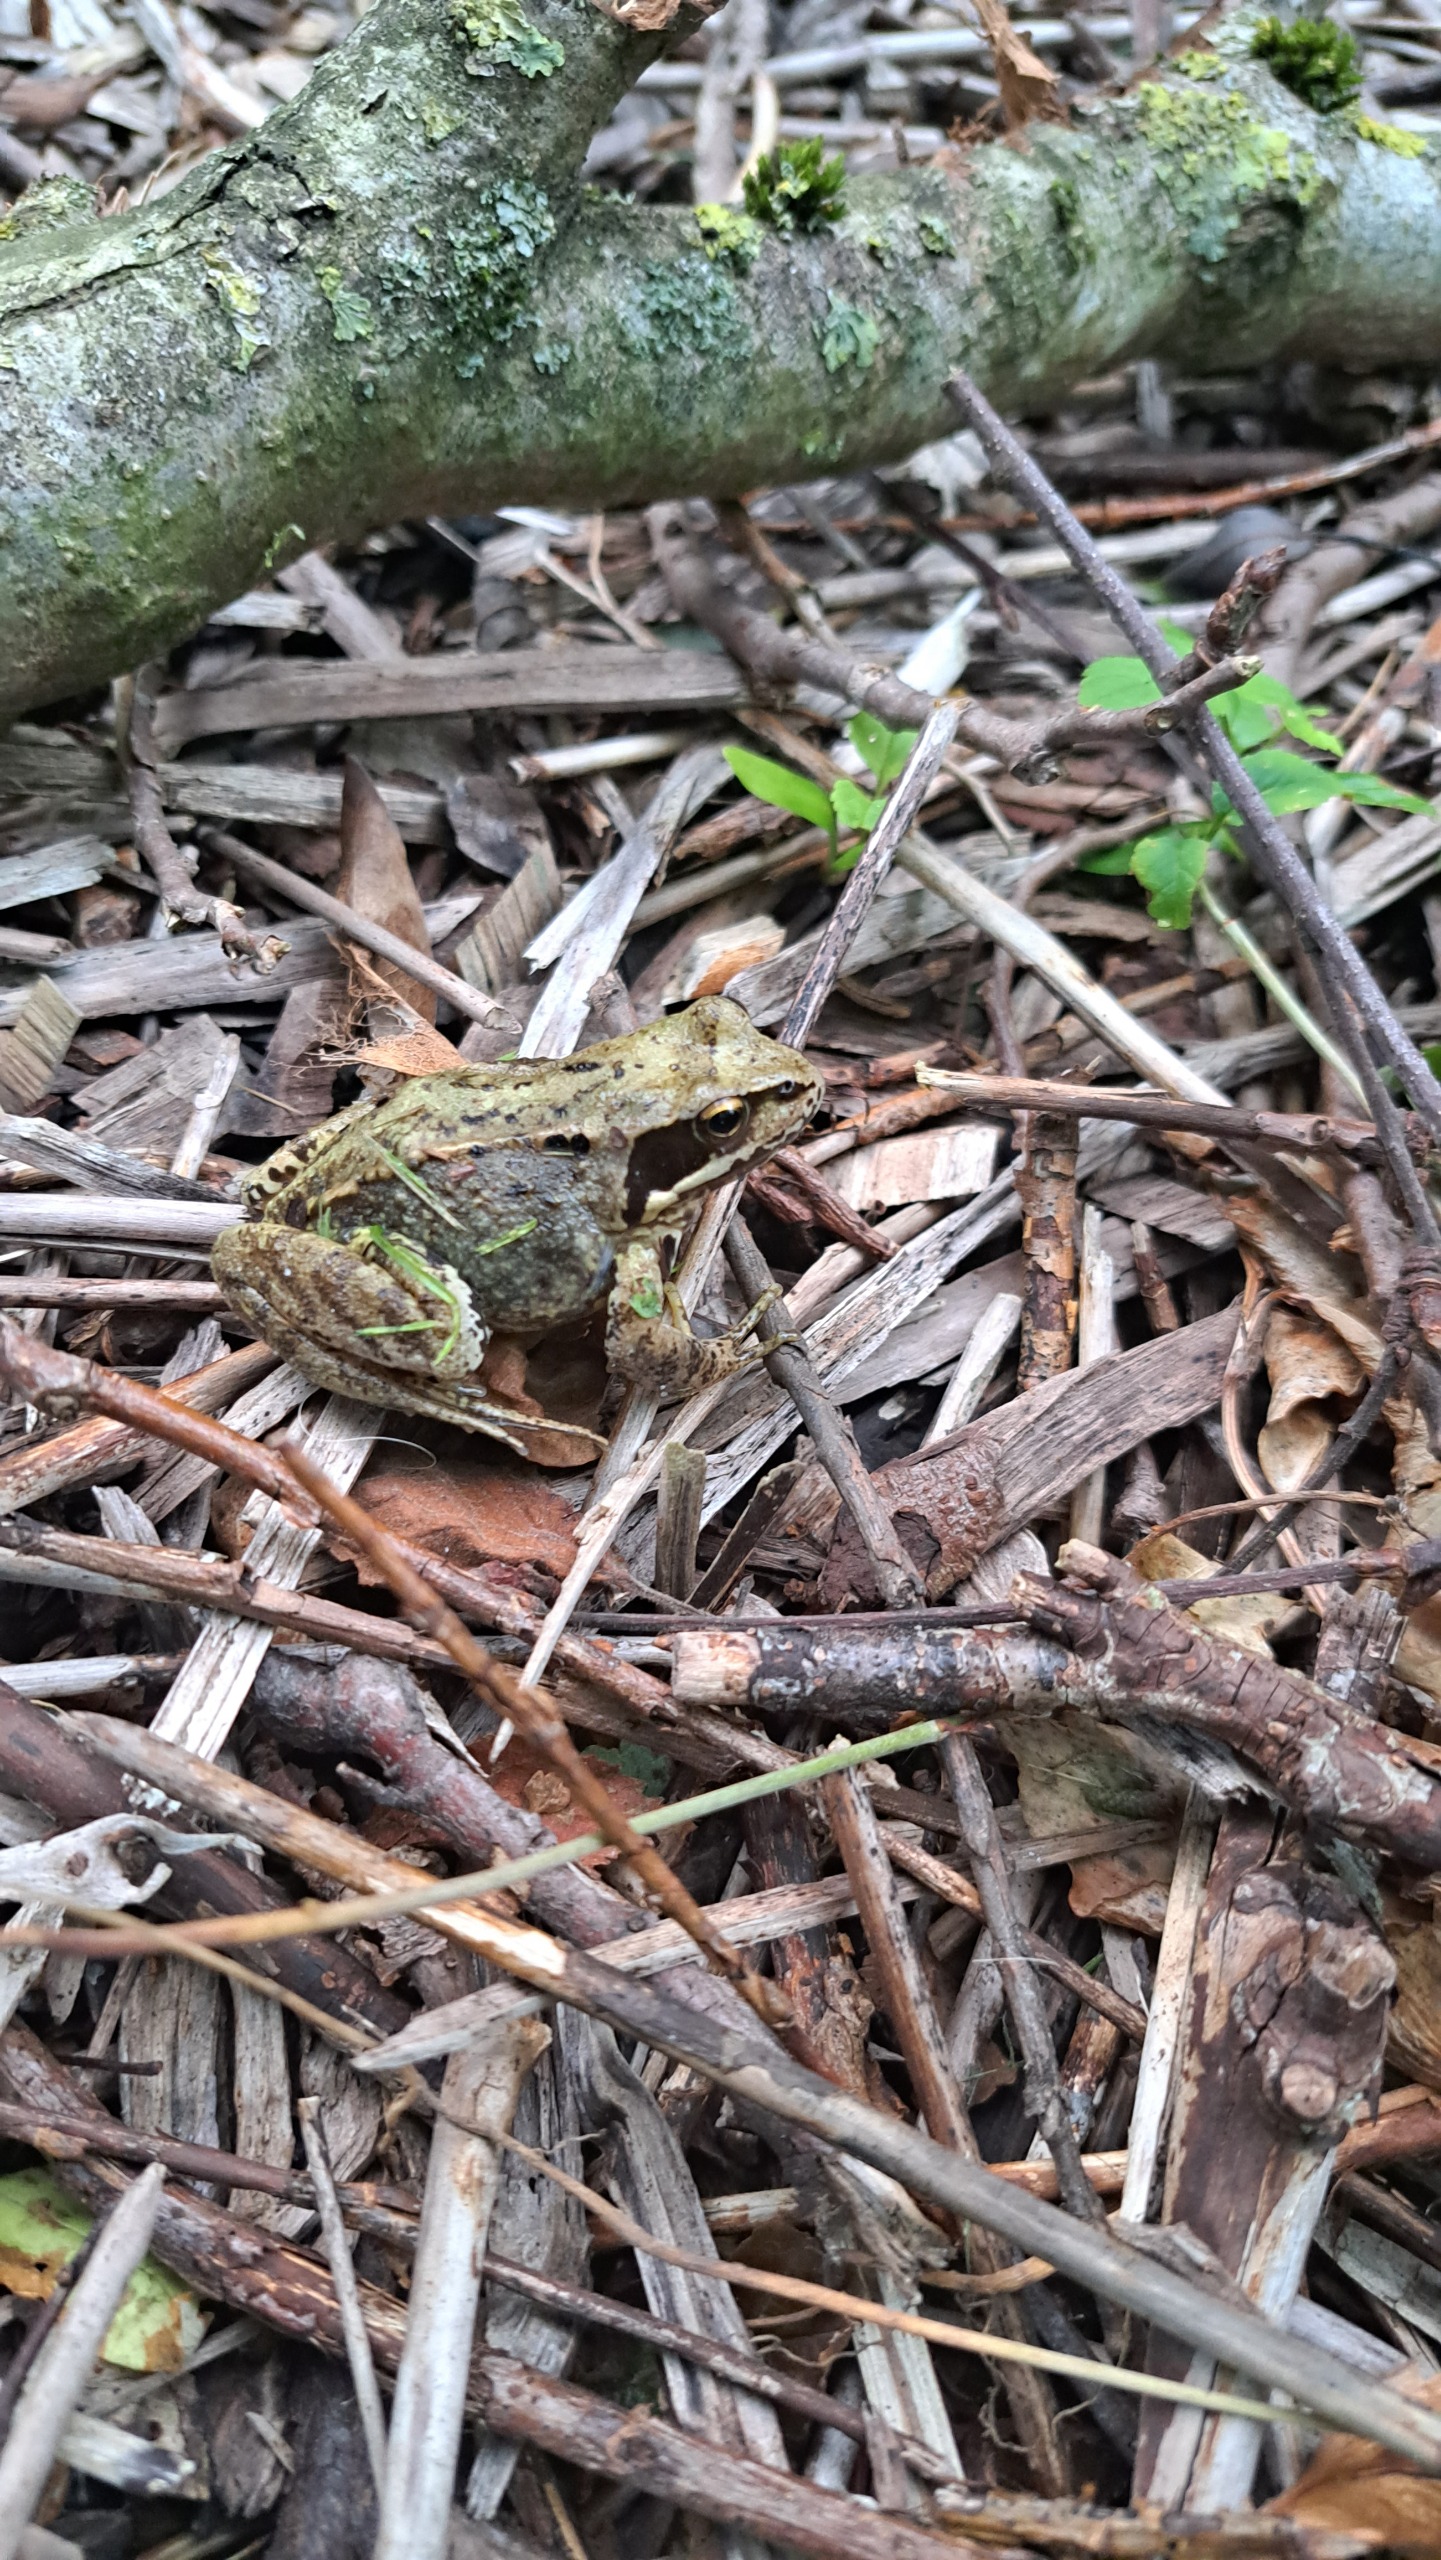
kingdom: Animalia
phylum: Chordata
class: Amphibia
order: Anura
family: Ranidae
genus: Rana
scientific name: Rana temporaria
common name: Butsnudet frø
